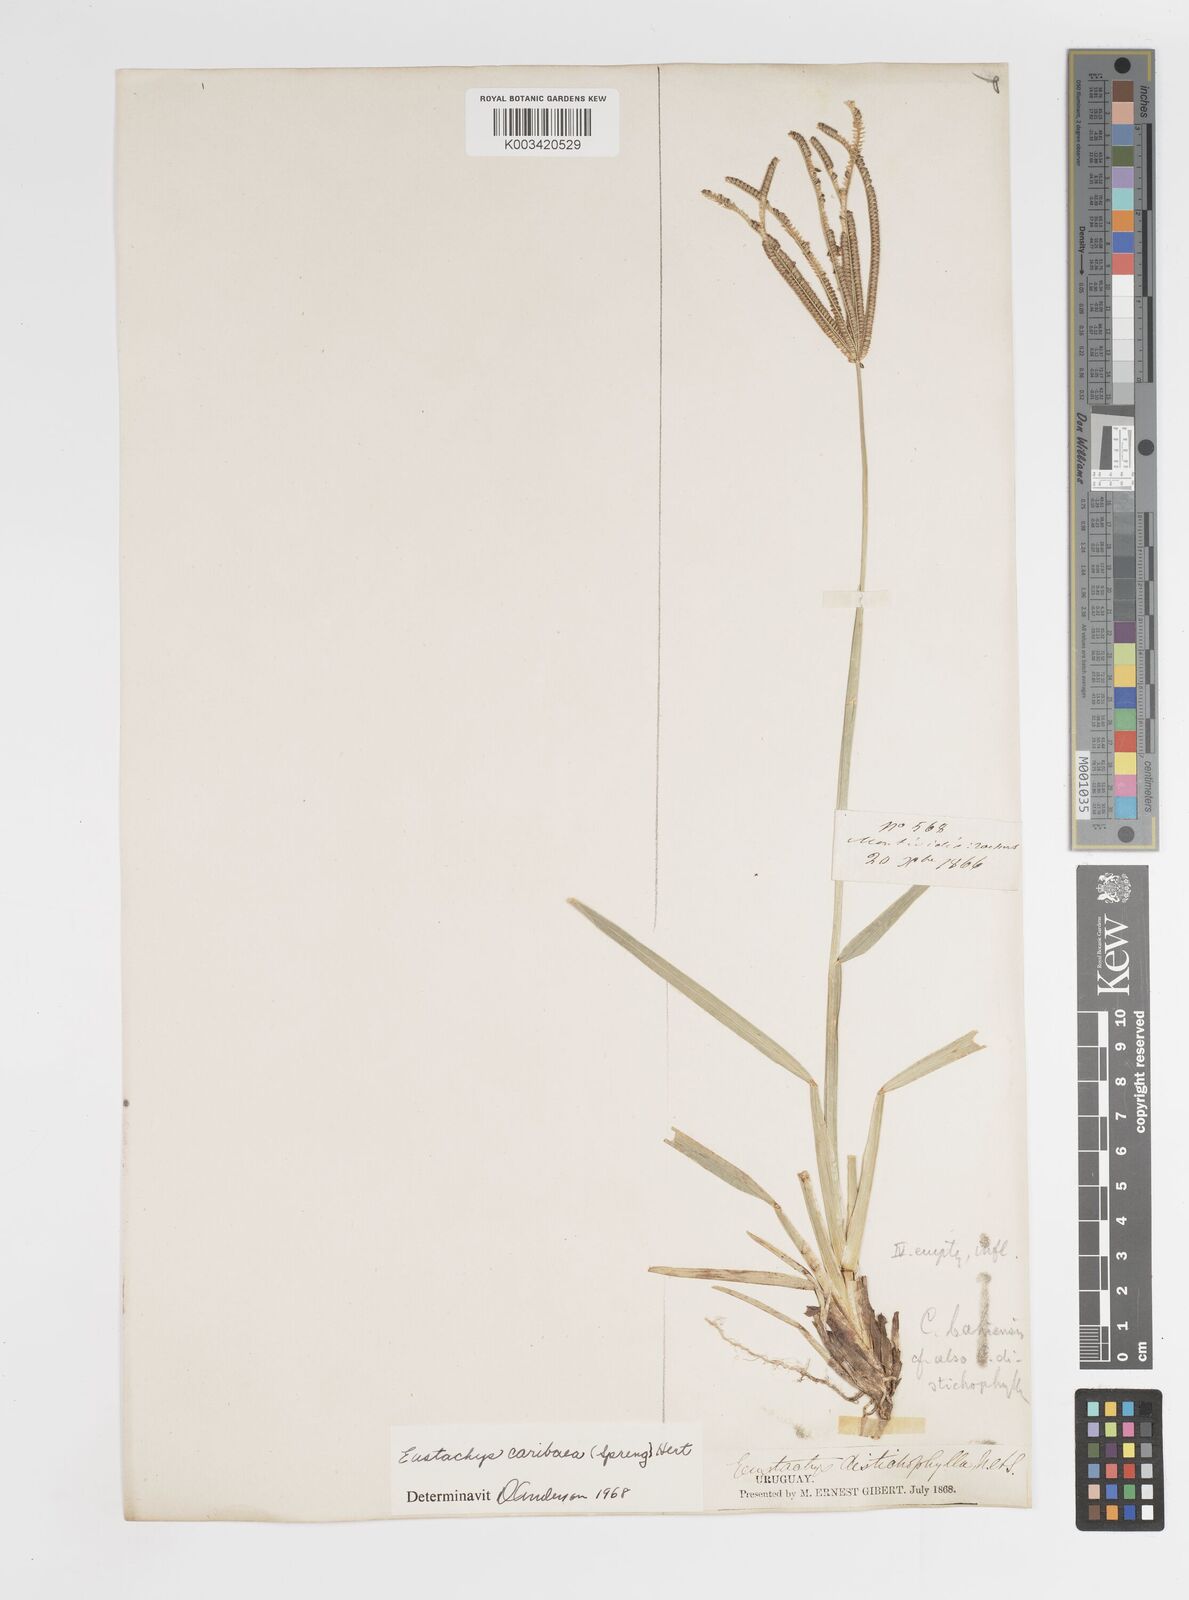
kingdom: Plantae
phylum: Tracheophyta
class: Liliopsida
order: Poales
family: Poaceae
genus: Eustachys
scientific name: Eustachys bahiensis
